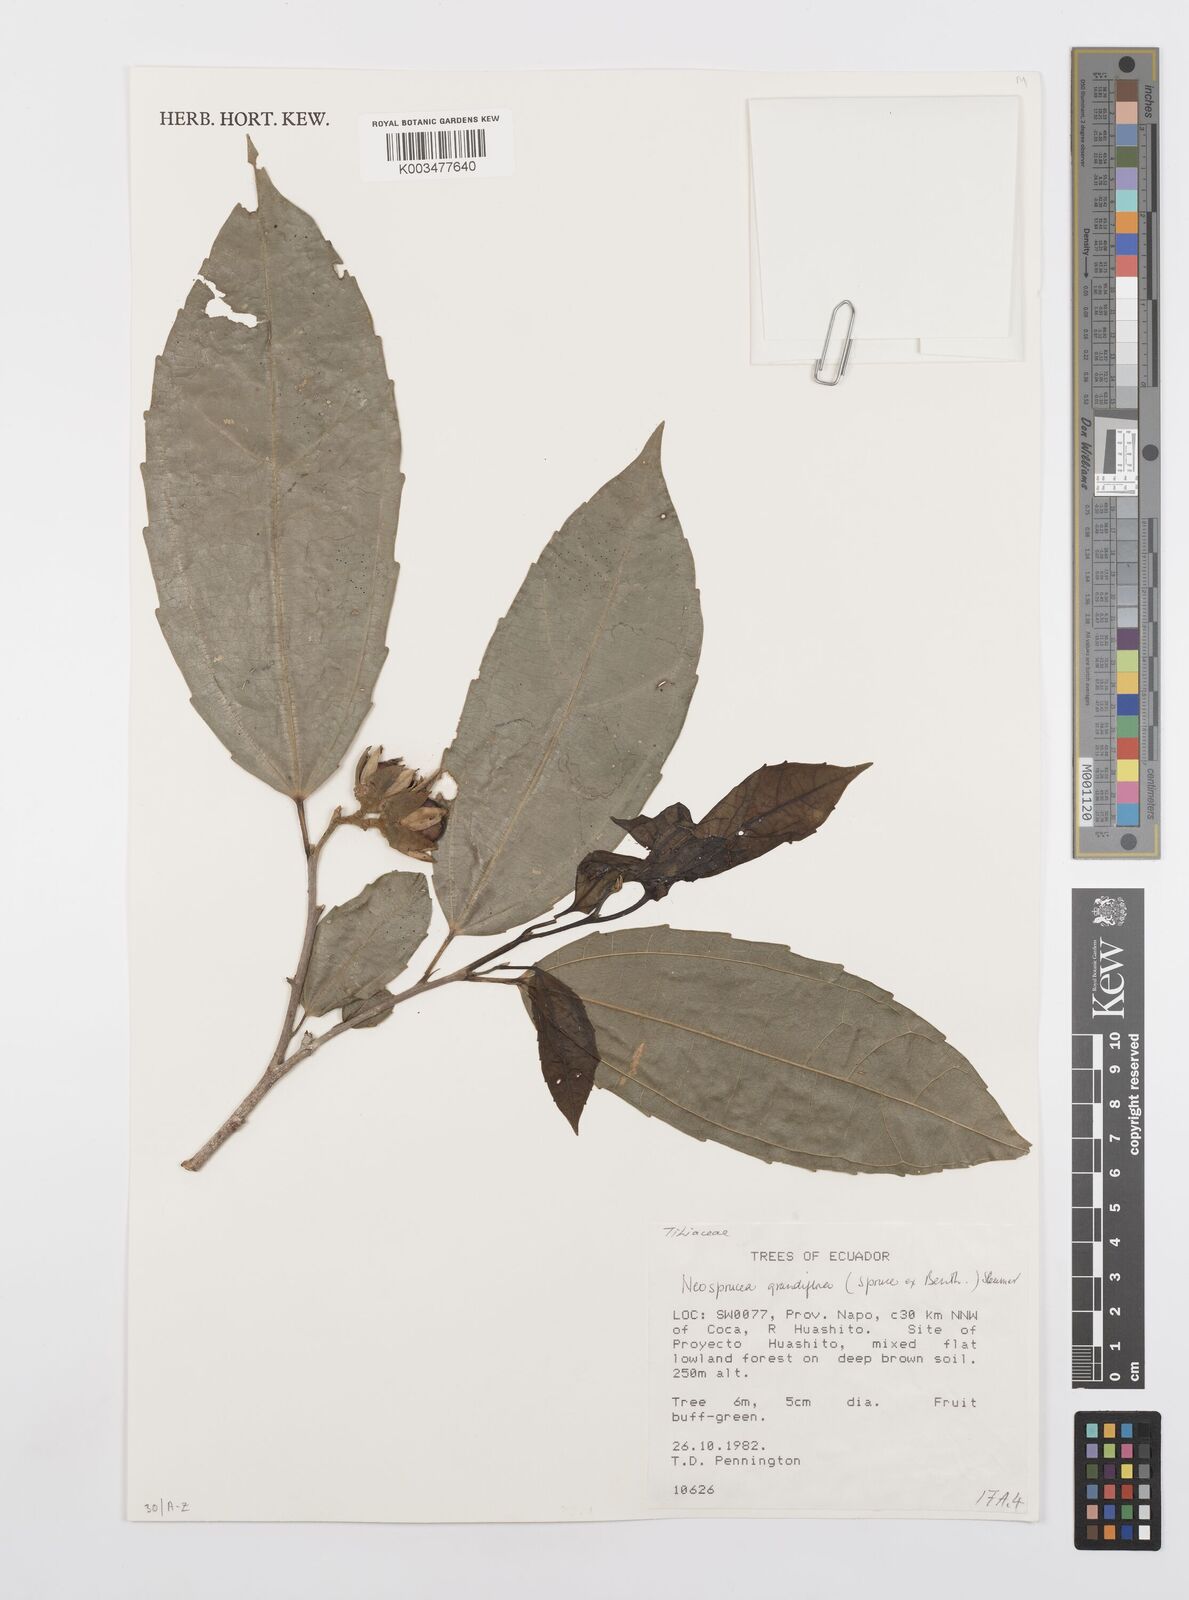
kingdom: Plantae
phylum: Tracheophyta
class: Magnoliopsida
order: Malpighiales
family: Salicaceae
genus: Neosprucea
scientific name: Neosprucea grandiflora
